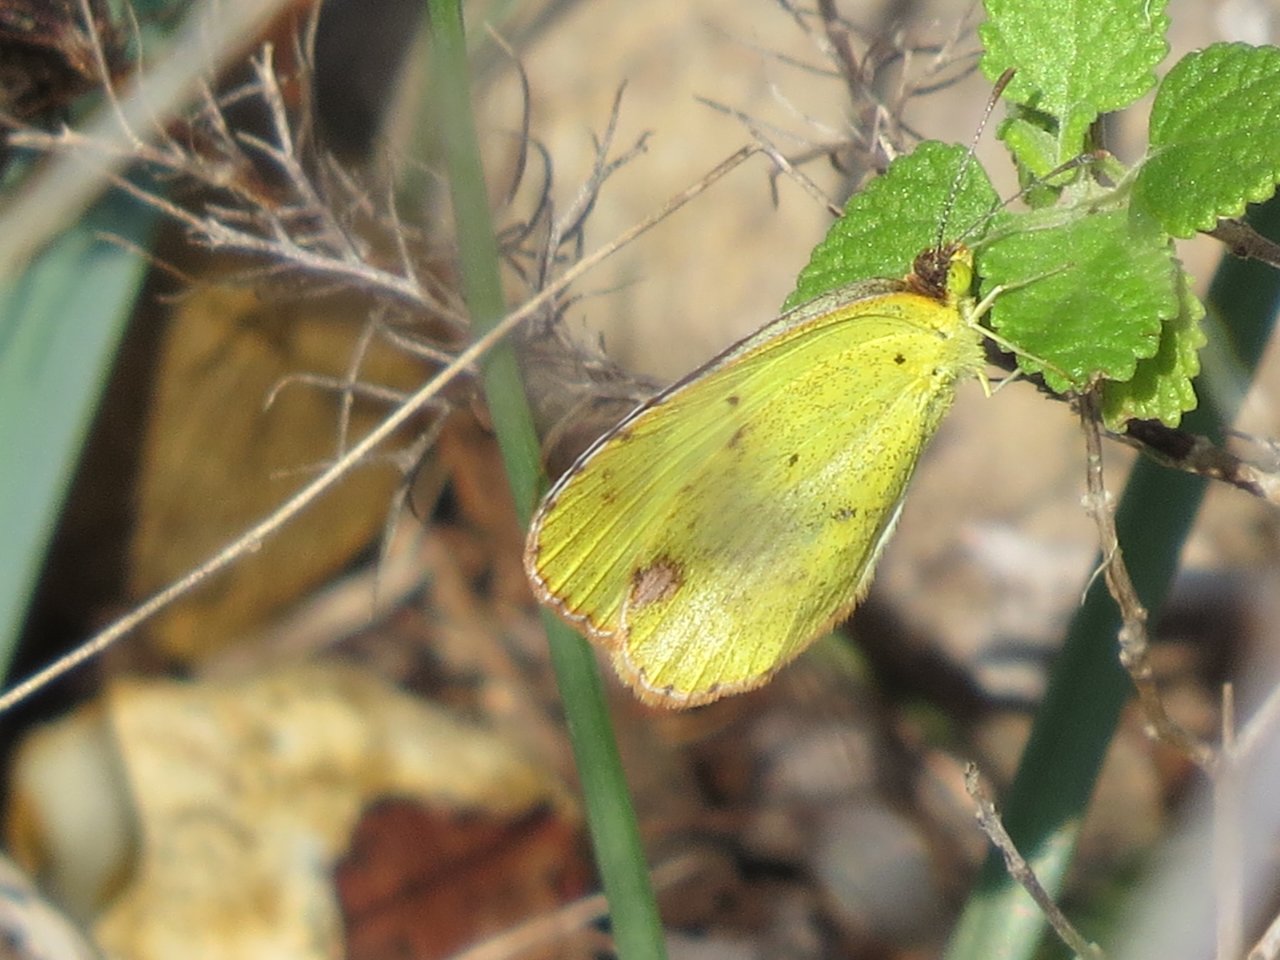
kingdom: Animalia
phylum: Arthropoda
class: Insecta
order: Lepidoptera
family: Pieridae
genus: Pyrisitia
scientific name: Pyrisitia lisa
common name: Little Yellow
